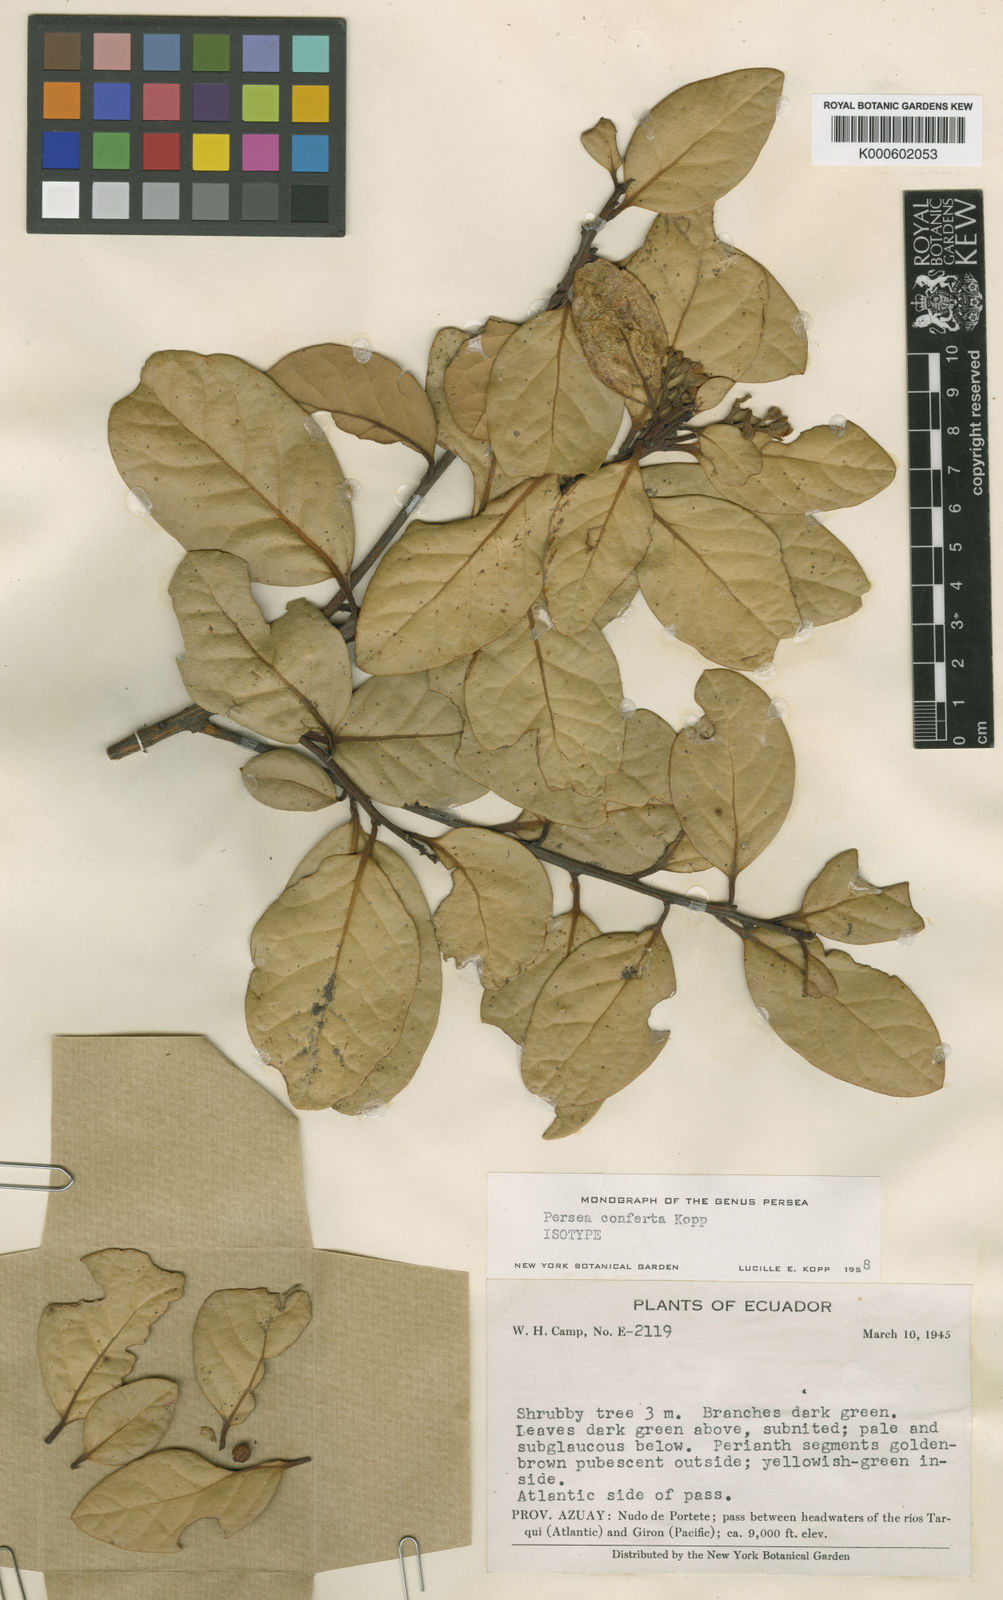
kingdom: Plantae
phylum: Tracheophyta
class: Magnoliopsida
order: Laurales
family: Lauraceae
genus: Persea
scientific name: Persea conferta
